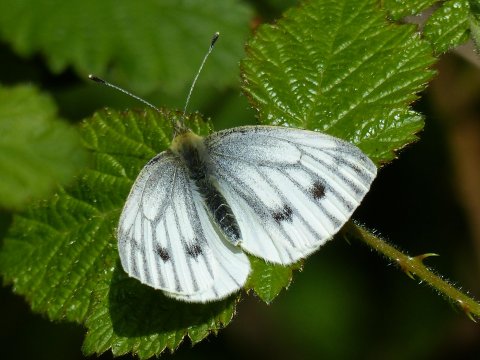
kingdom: Animalia
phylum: Arthropoda
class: Insecta
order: Lepidoptera
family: Pieridae
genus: Pieris
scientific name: Pieris napi
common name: Green-veined White
